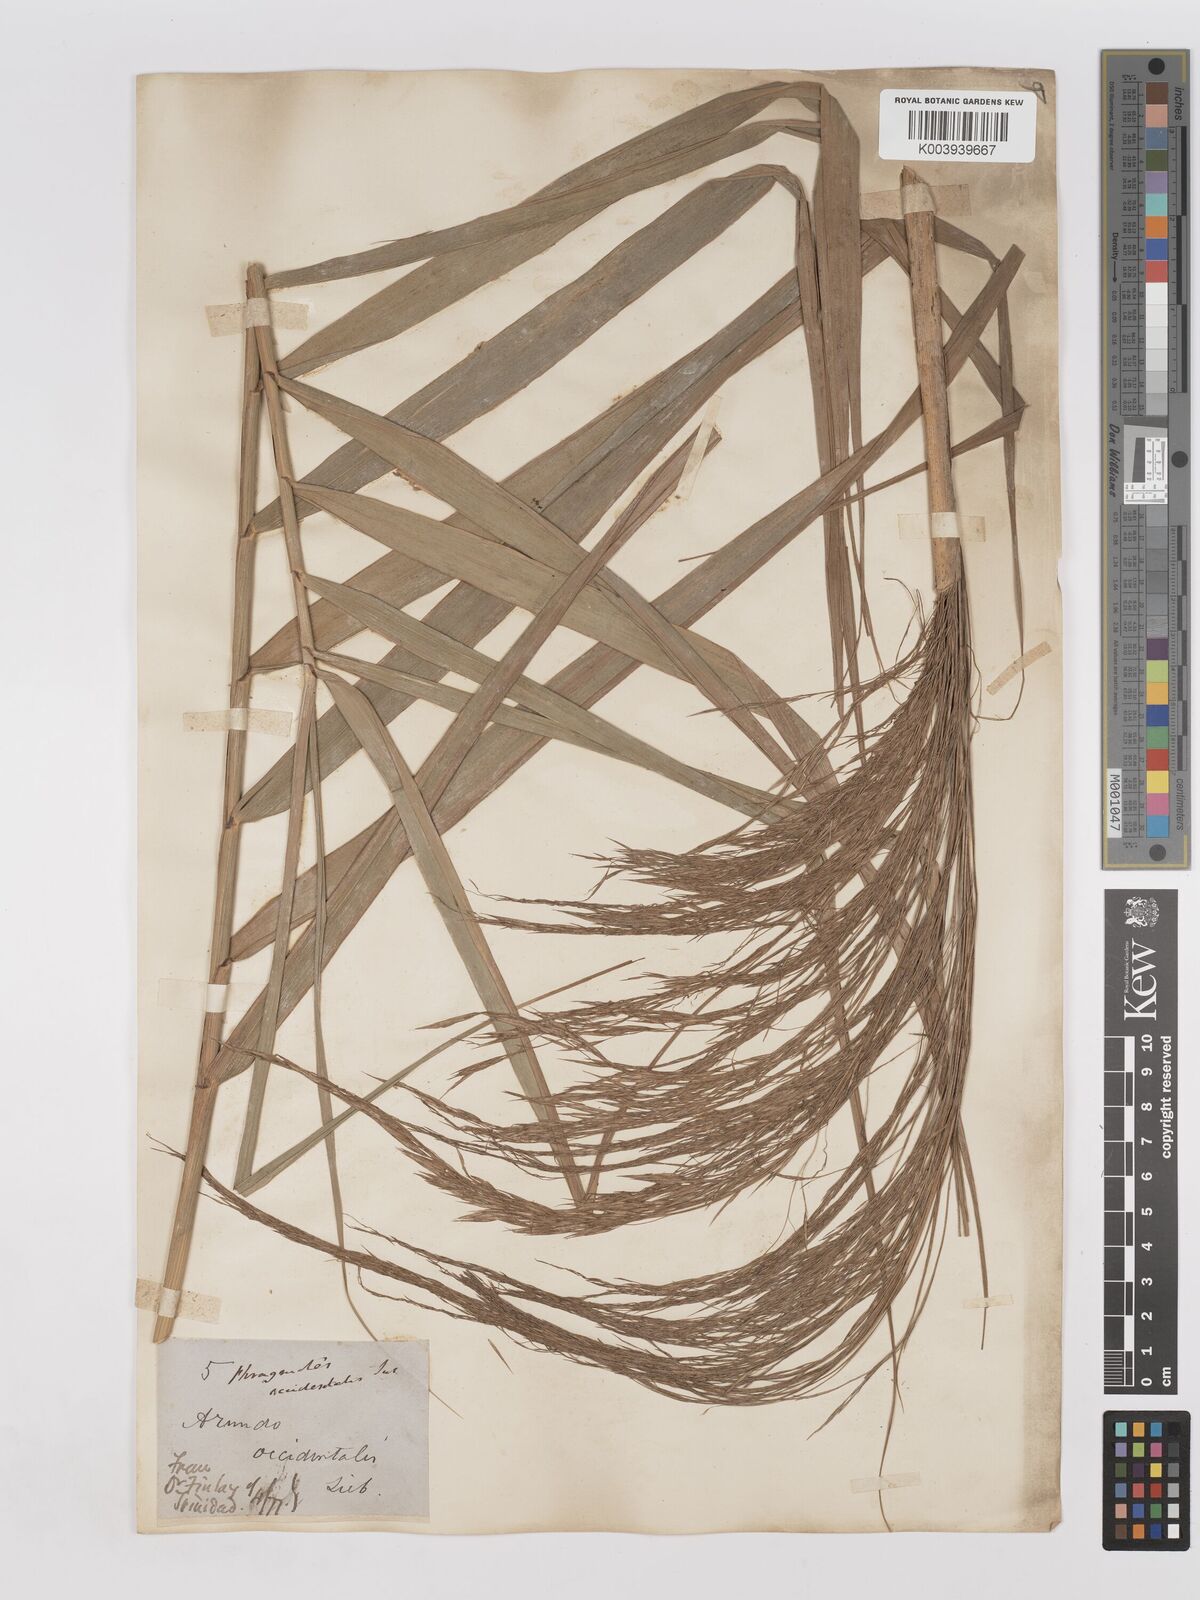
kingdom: Plantae
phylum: Tracheophyta
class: Liliopsida
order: Poales
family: Poaceae
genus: Phragmites
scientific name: Phragmites australis
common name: Common reed
